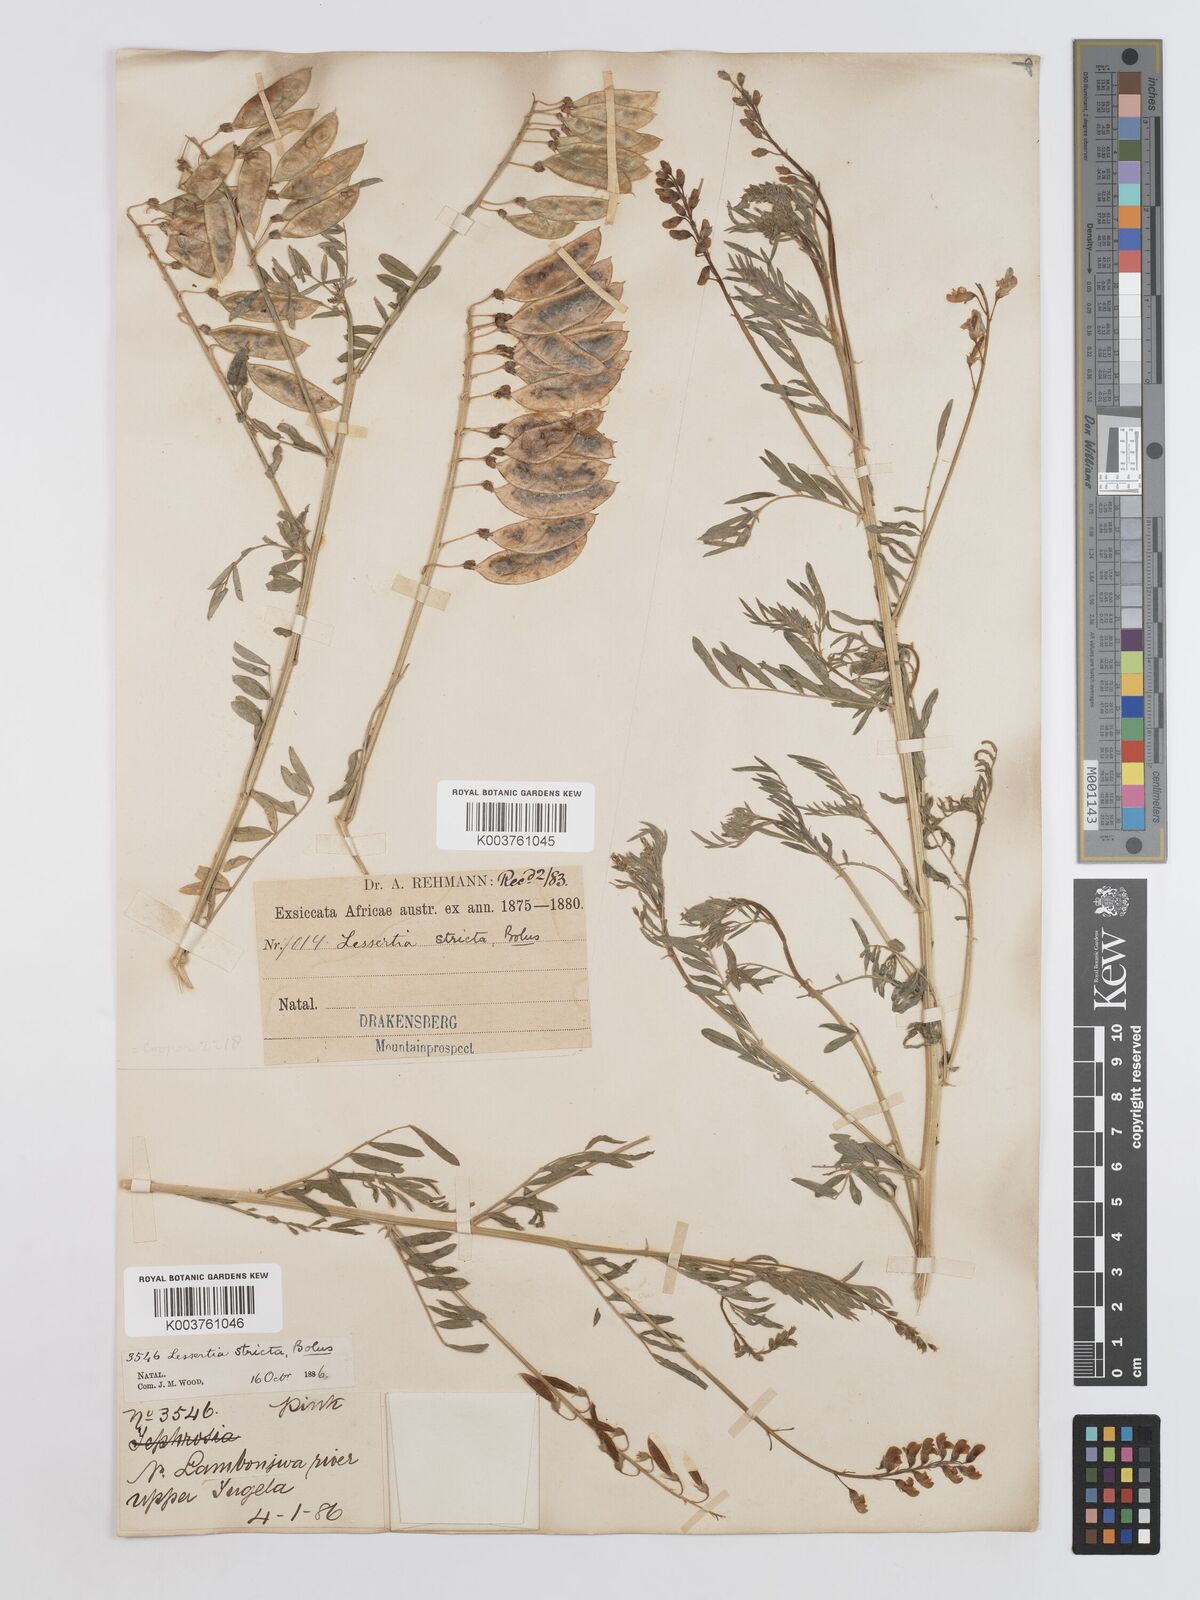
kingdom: Plantae
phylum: Tracheophyta
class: Magnoliopsida
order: Fabales
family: Fabaceae
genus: Lessertia
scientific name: Lessertia stricta
